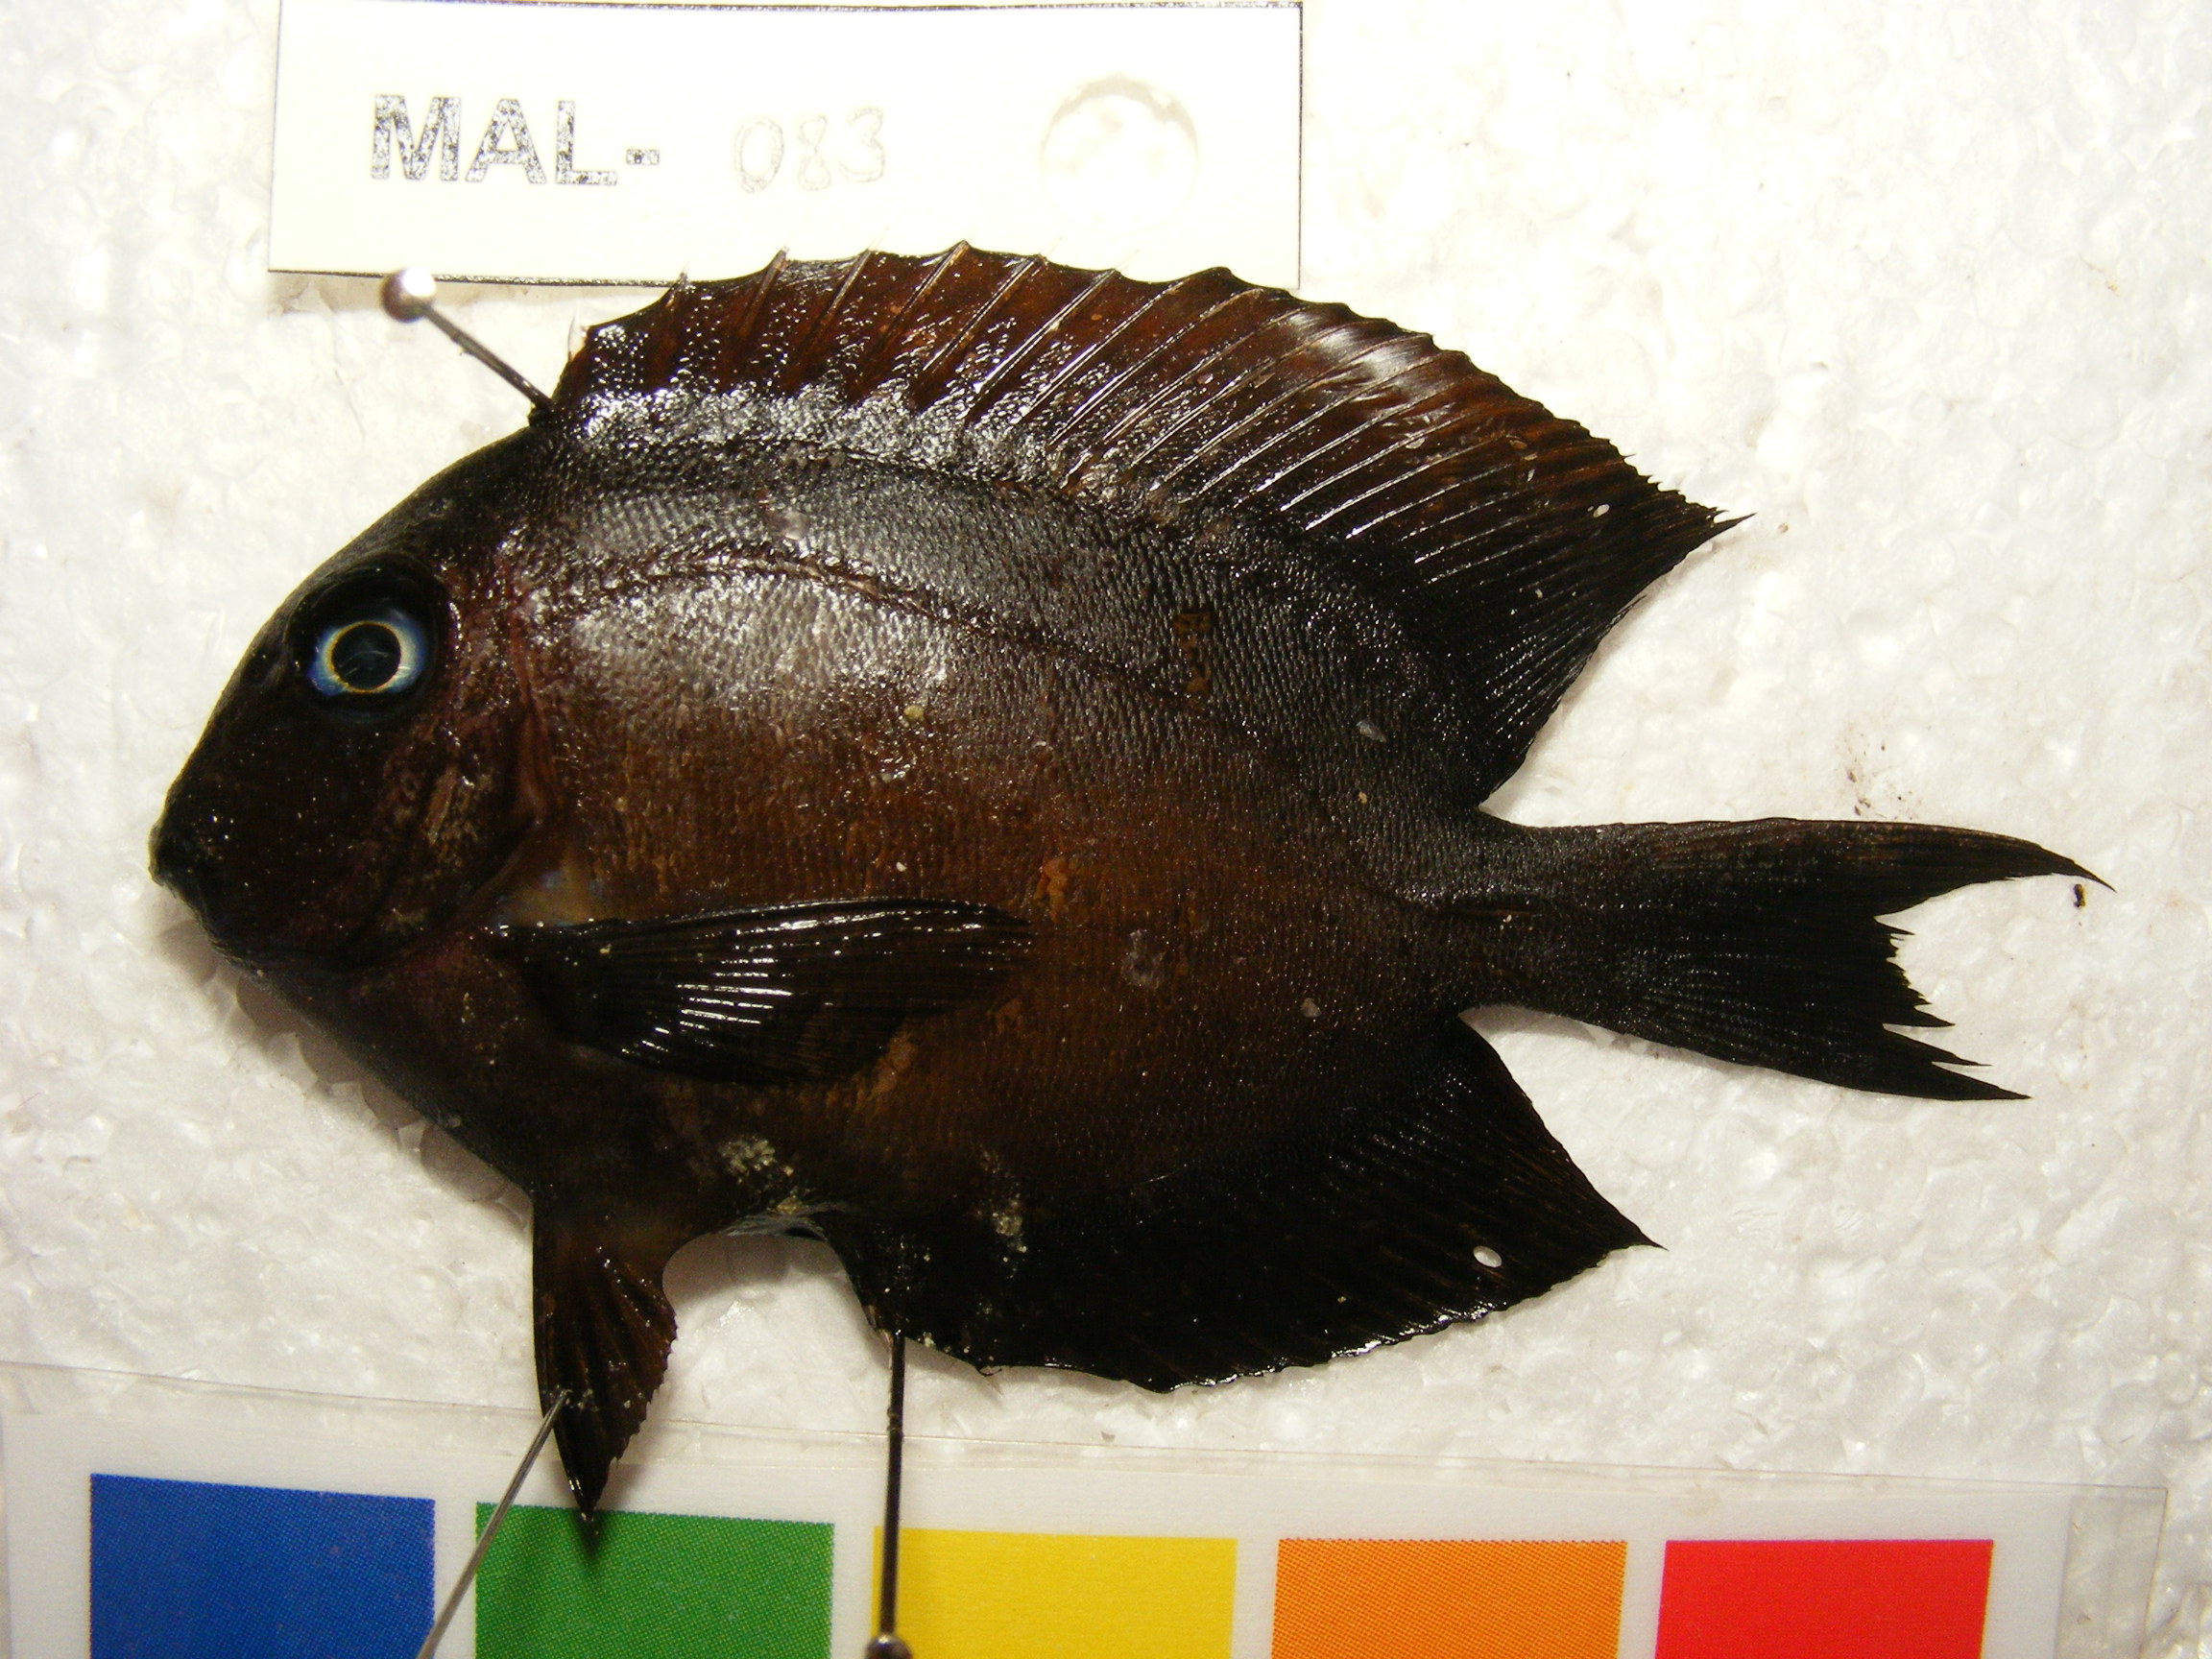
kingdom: Animalia
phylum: Chordata
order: Perciformes
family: Acanthuridae
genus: Ctenochaetus
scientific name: Ctenochaetus striatus
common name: Bristle-toothed surgeonfish
